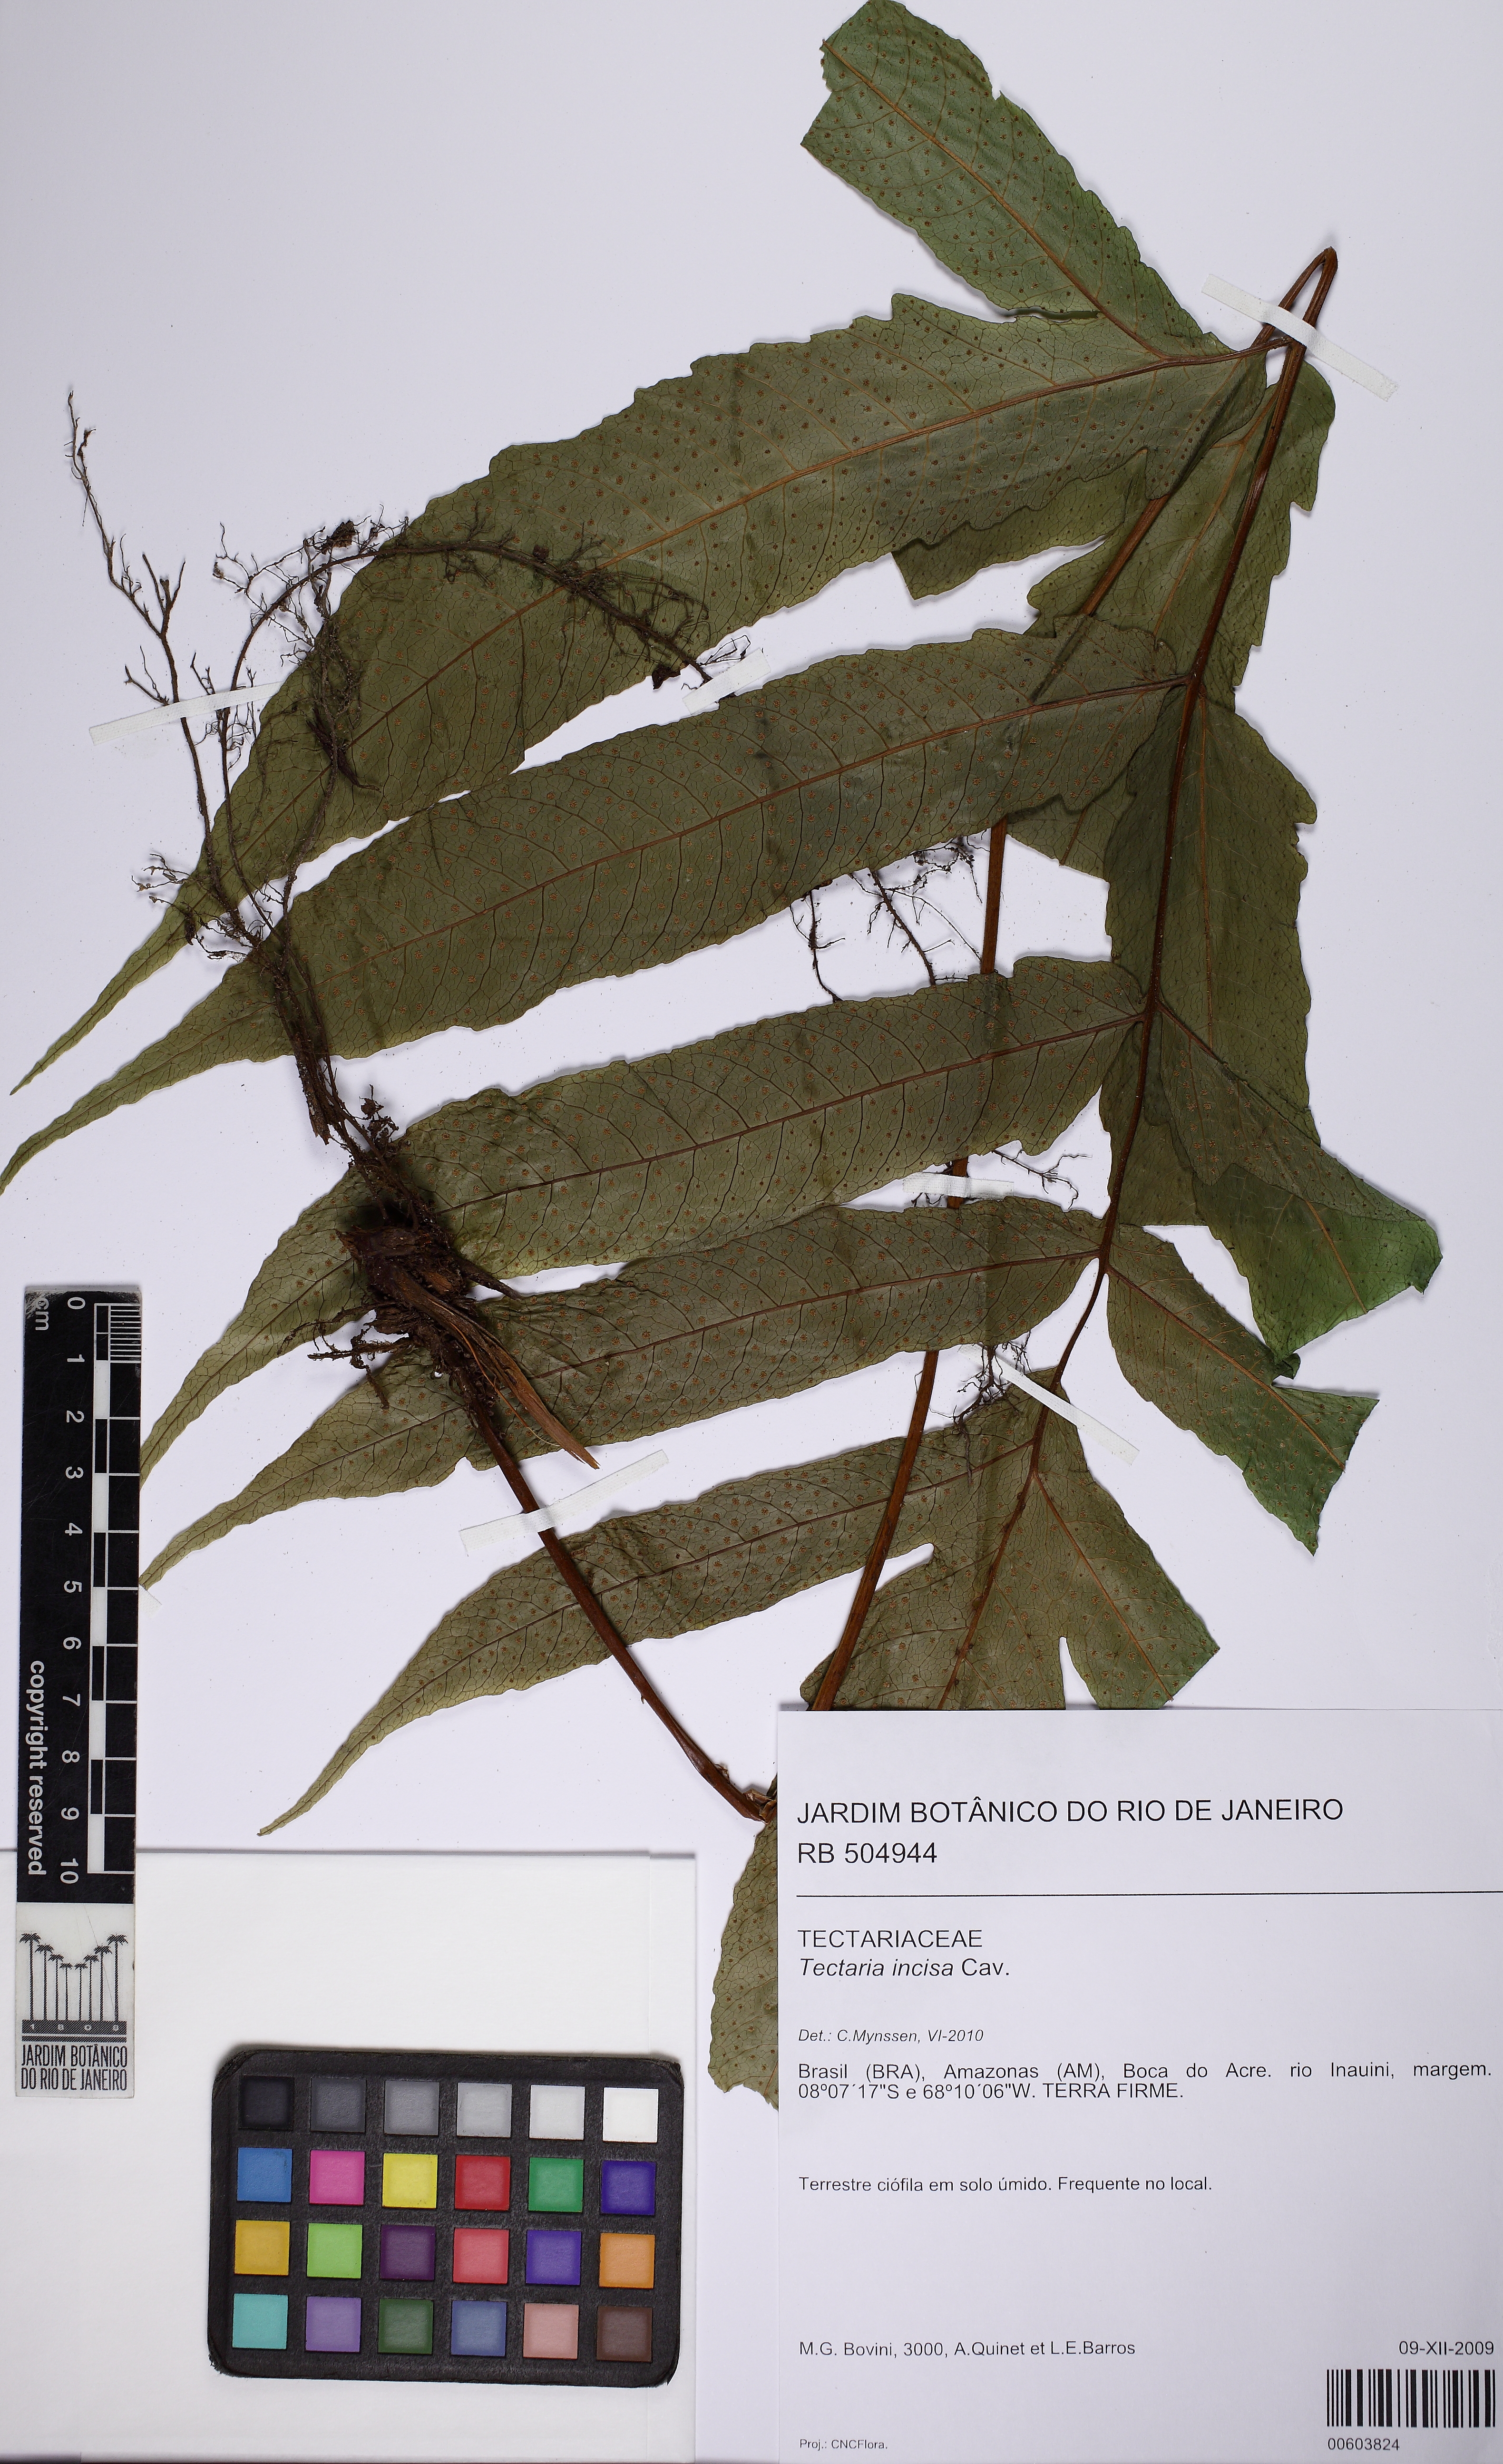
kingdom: Plantae
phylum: Tracheophyta
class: Polypodiopsida
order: Polypodiales
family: Tectariaceae
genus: Tectaria
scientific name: Tectaria incisa
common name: Incised halberd fern
